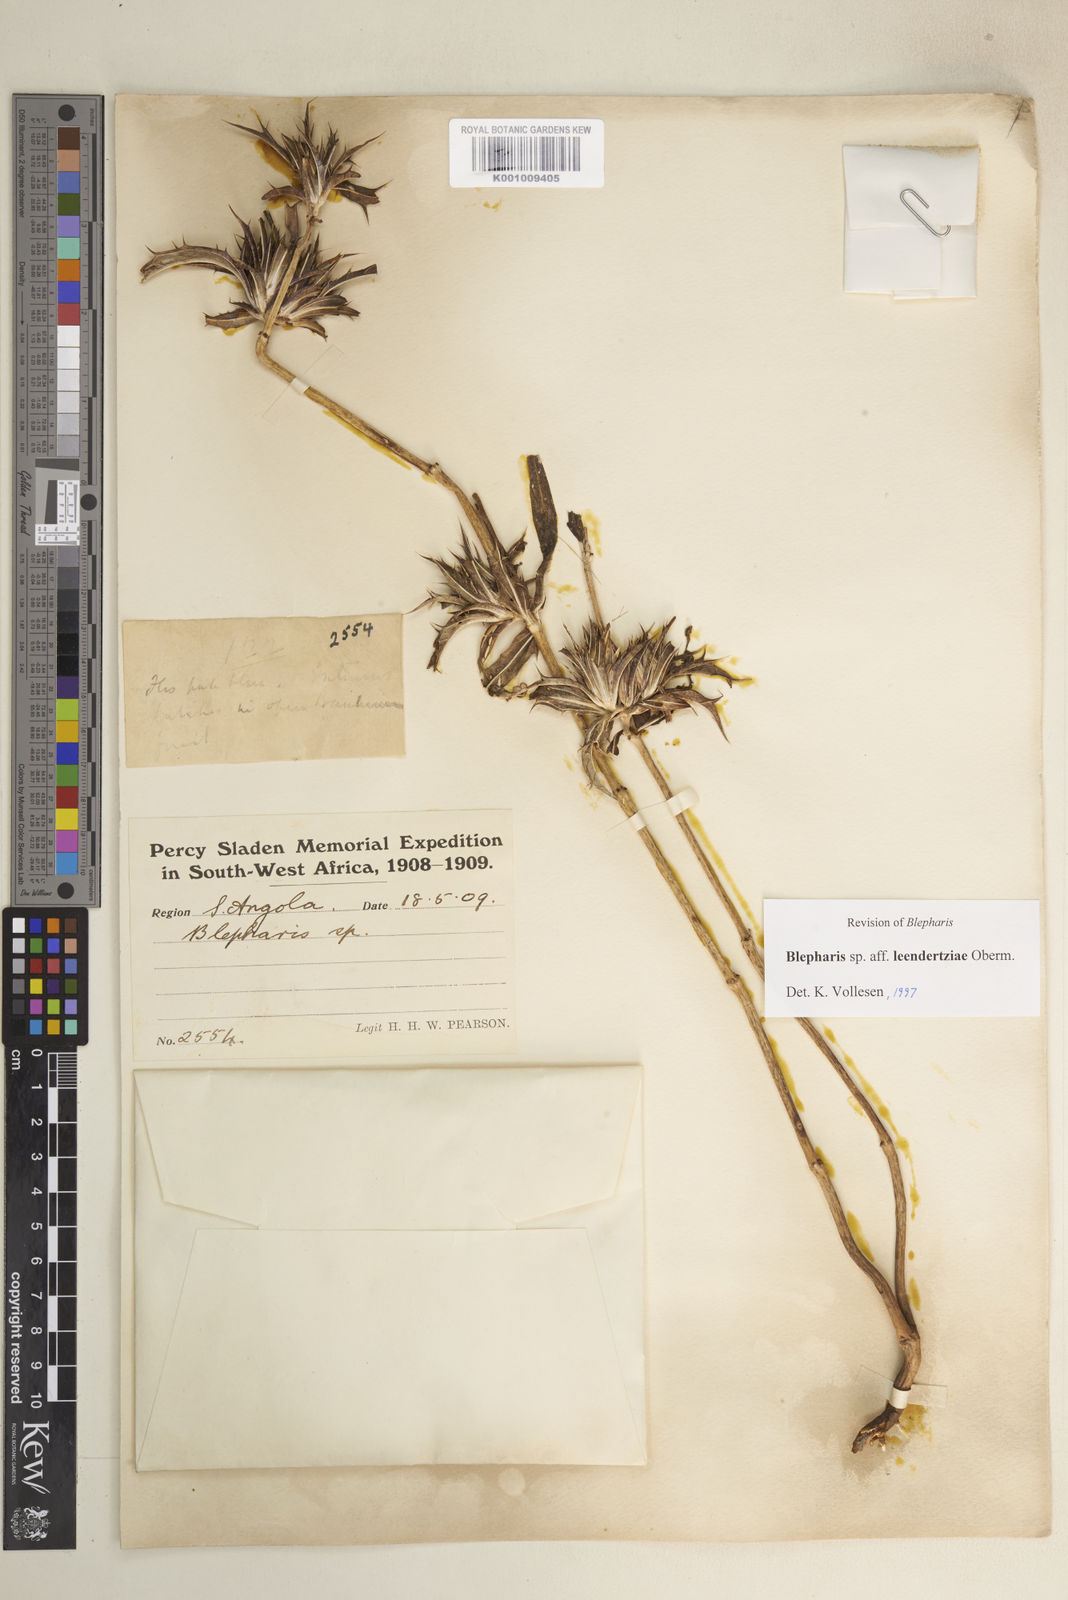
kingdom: Plantae
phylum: Tracheophyta
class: Magnoliopsida
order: Lamiales
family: Acanthaceae
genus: Blepharis
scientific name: Blepharis leendertziae
